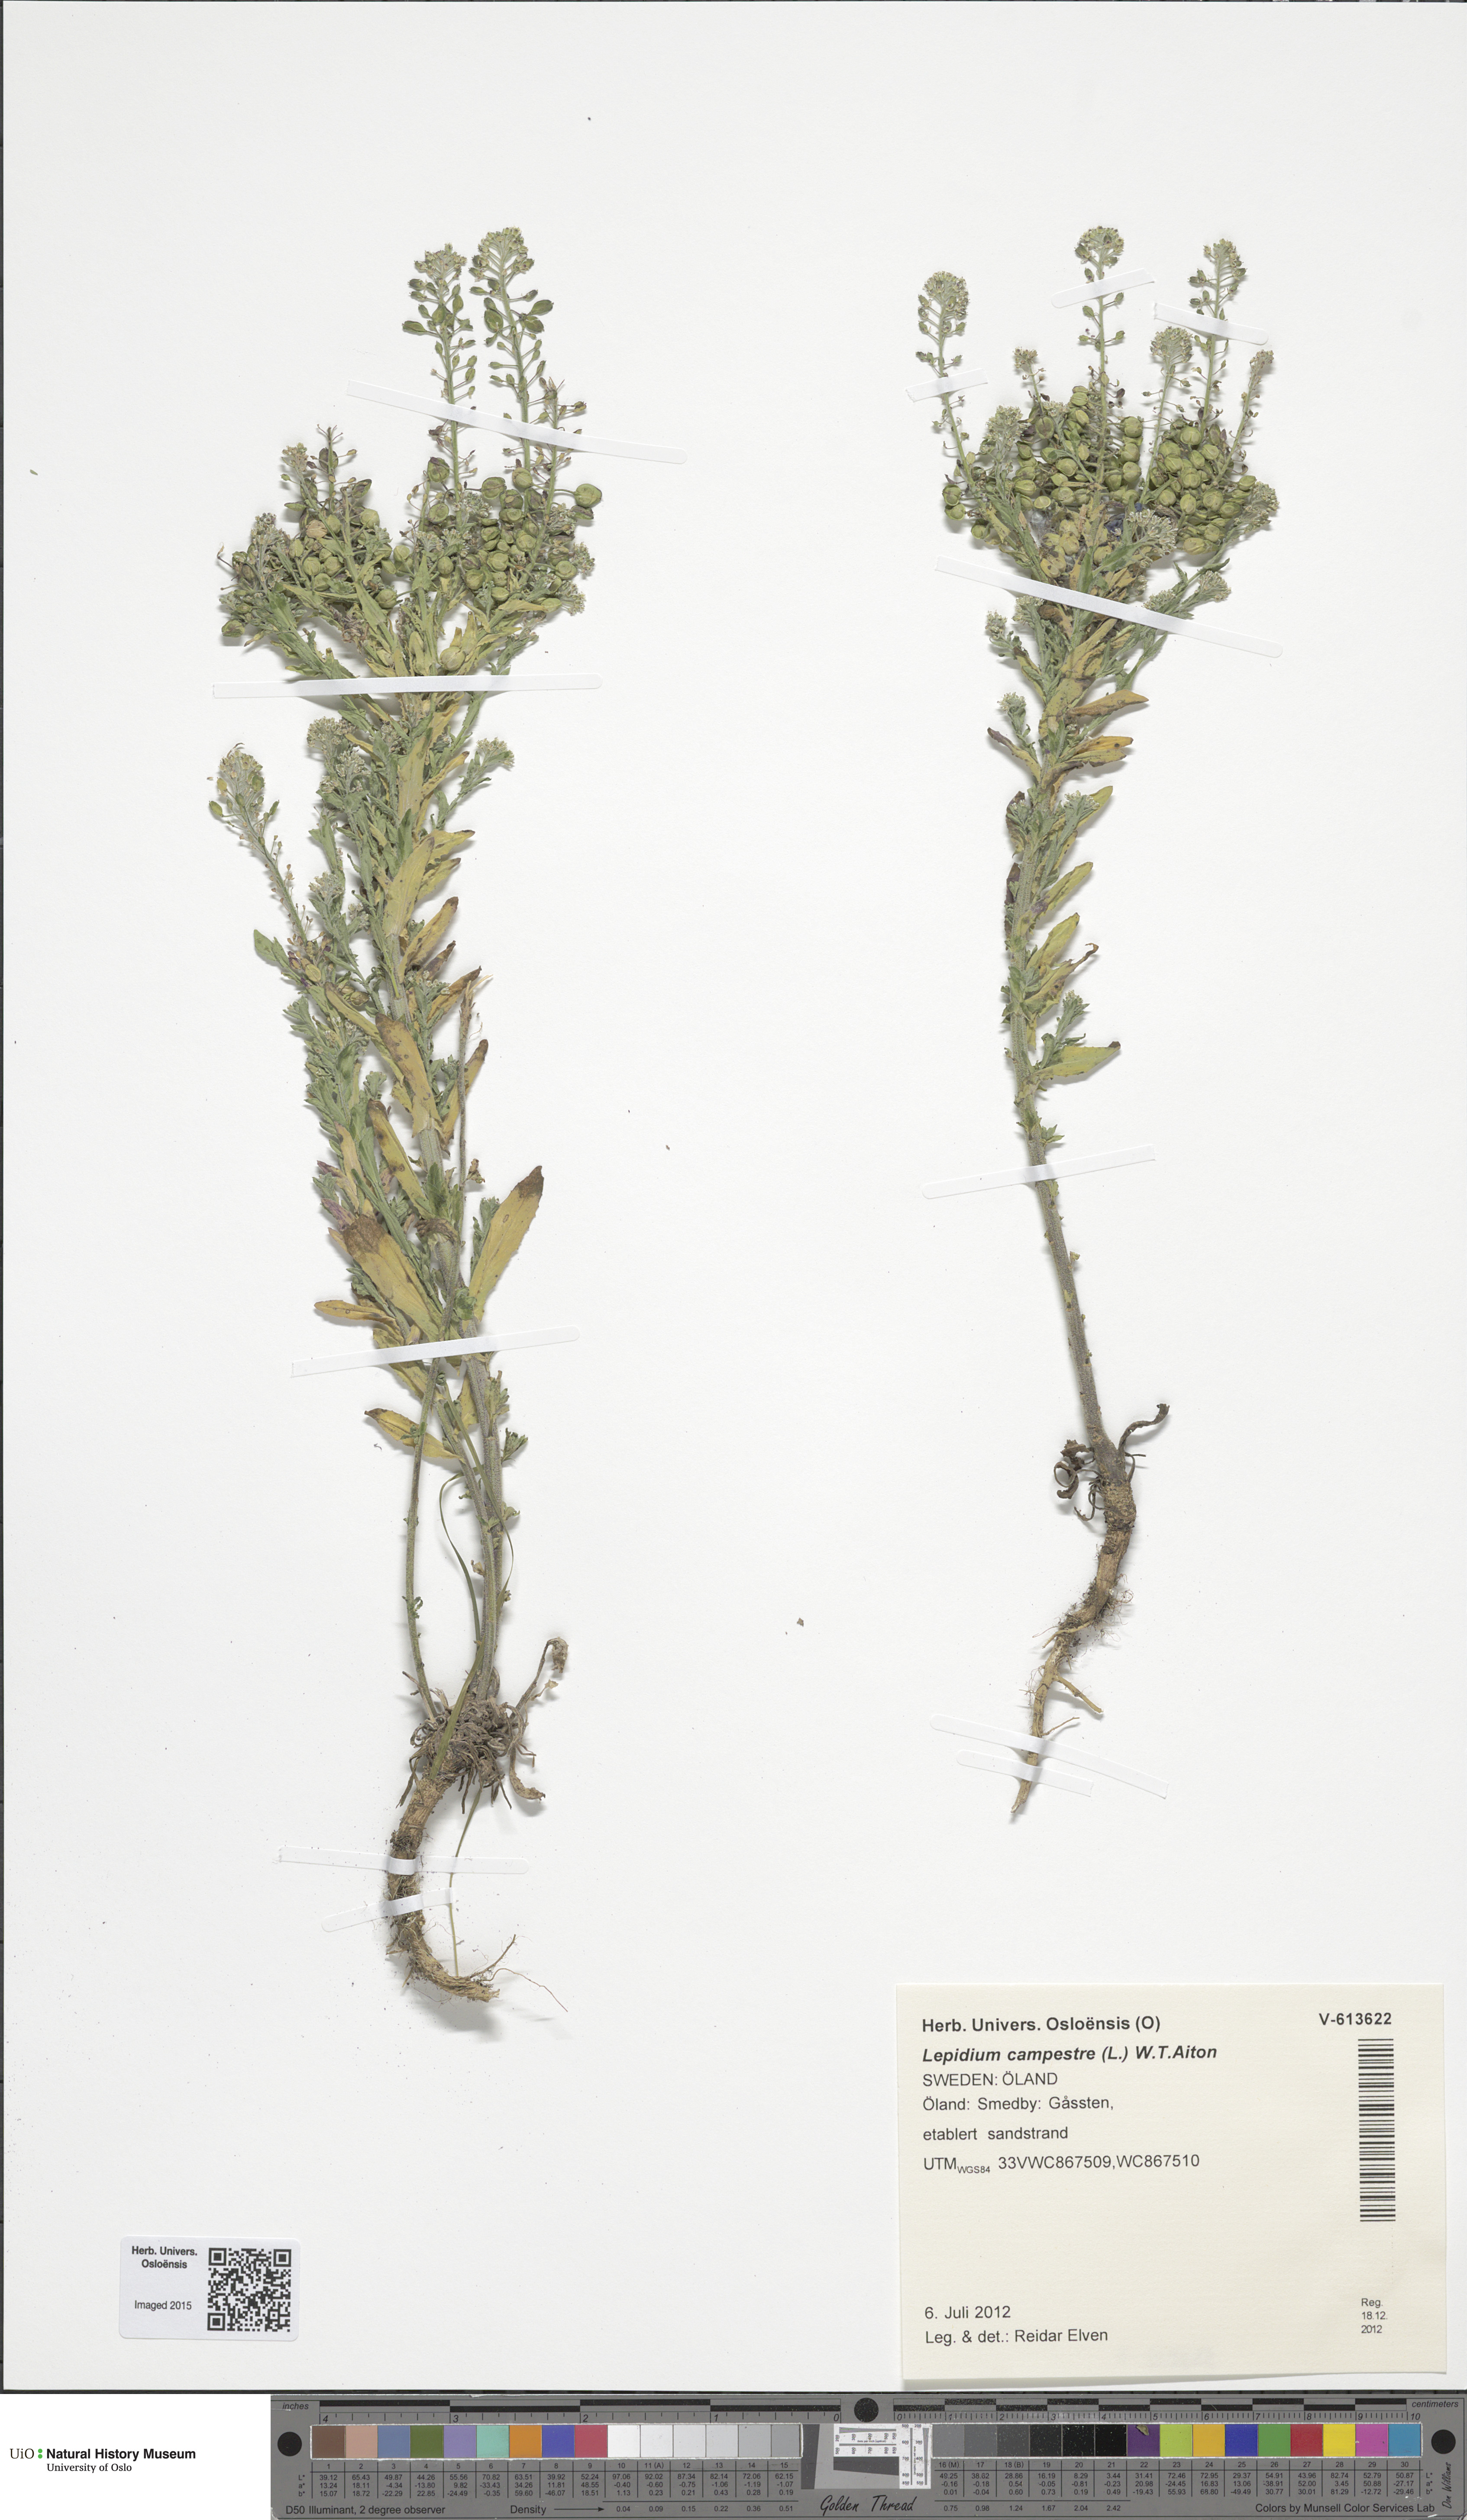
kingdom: Plantae
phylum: Tracheophyta
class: Magnoliopsida
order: Brassicales
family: Brassicaceae
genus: Lepidium
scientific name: Lepidium campestre
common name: Field pepperwort
